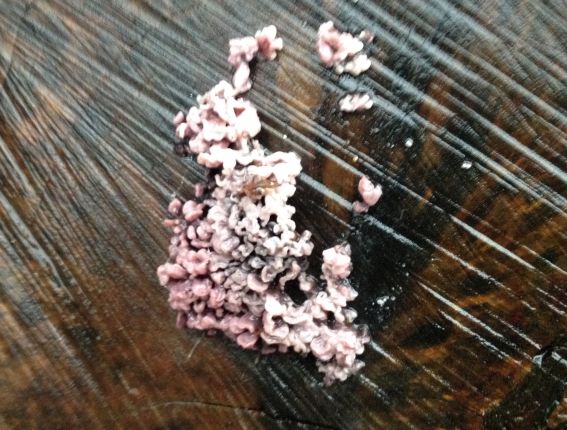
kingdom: Fungi
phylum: Ascomycota
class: Leotiomycetes
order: Helotiales
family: Gelatinodiscaceae
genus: Ascocoryne
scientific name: Ascocoryne sarcoides
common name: rødlilla sejskive
